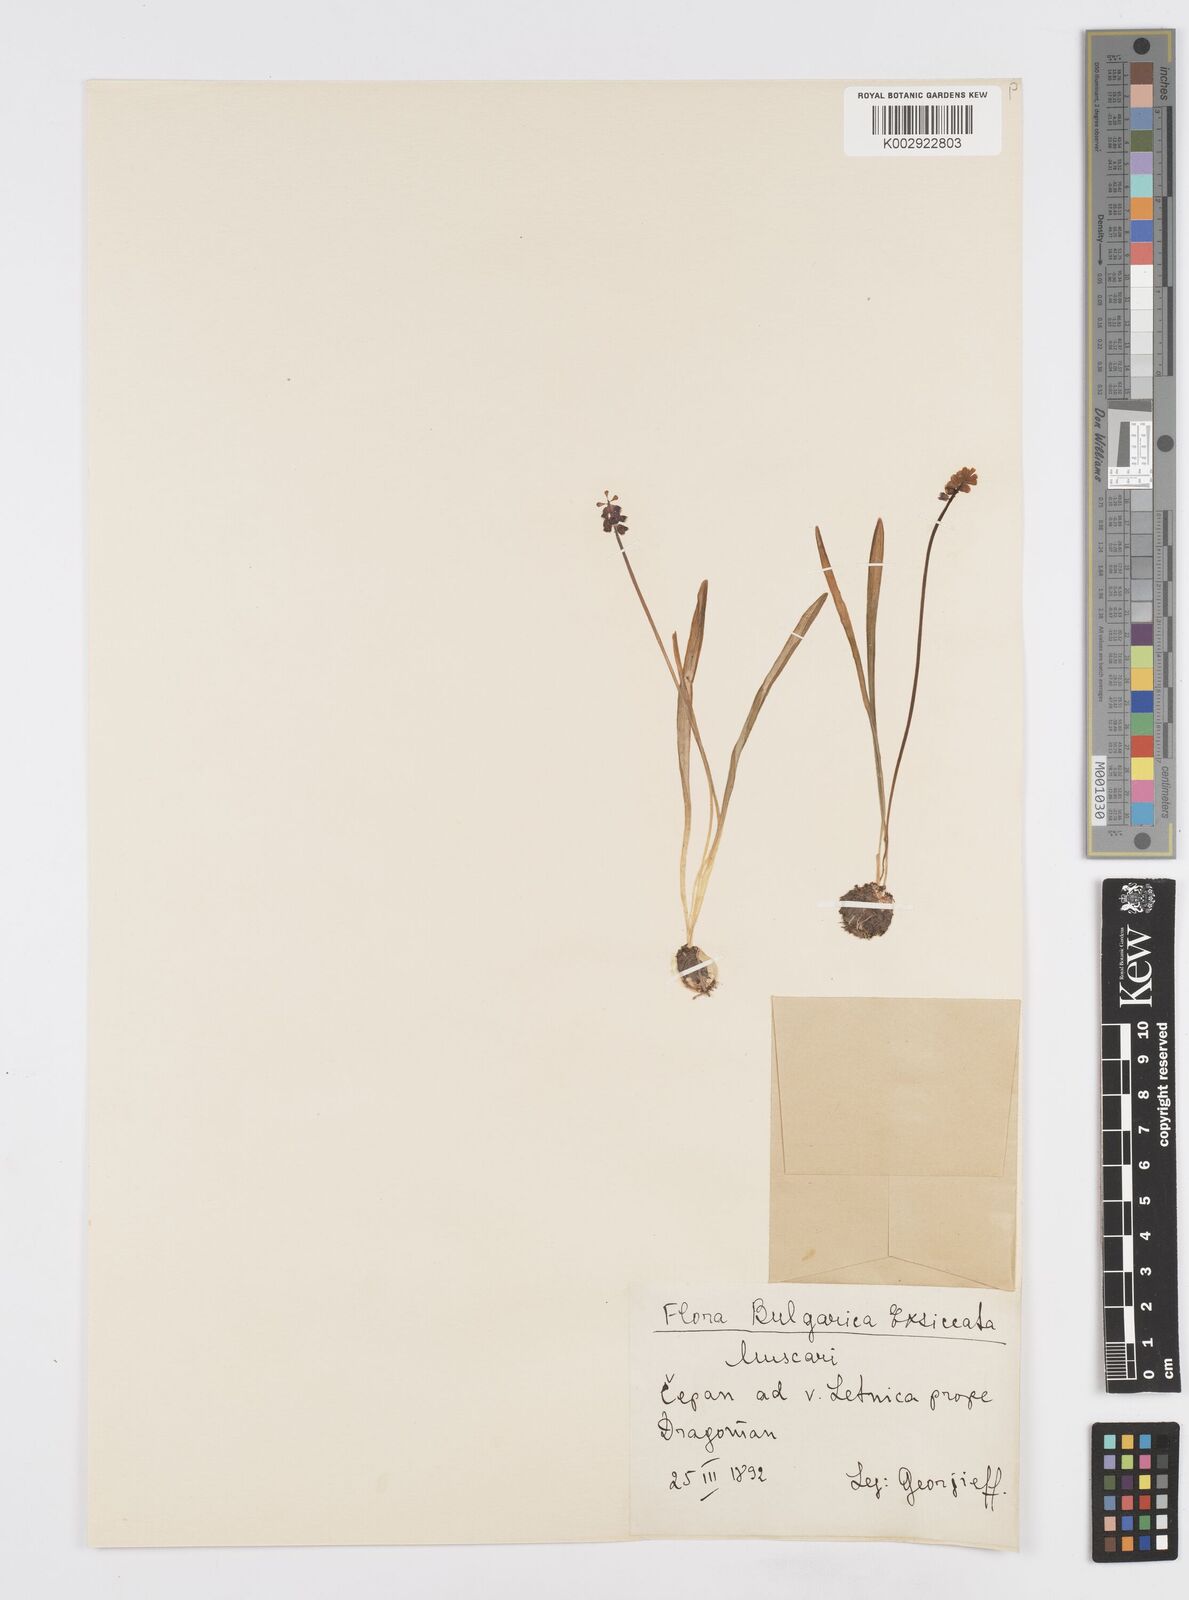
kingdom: Plantae
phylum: Tracheophyta
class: Liliopsida
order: Asparagales
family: Asparagaceae
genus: Muscari
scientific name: Muscari botryoides
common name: Compact grape-hyacinth
